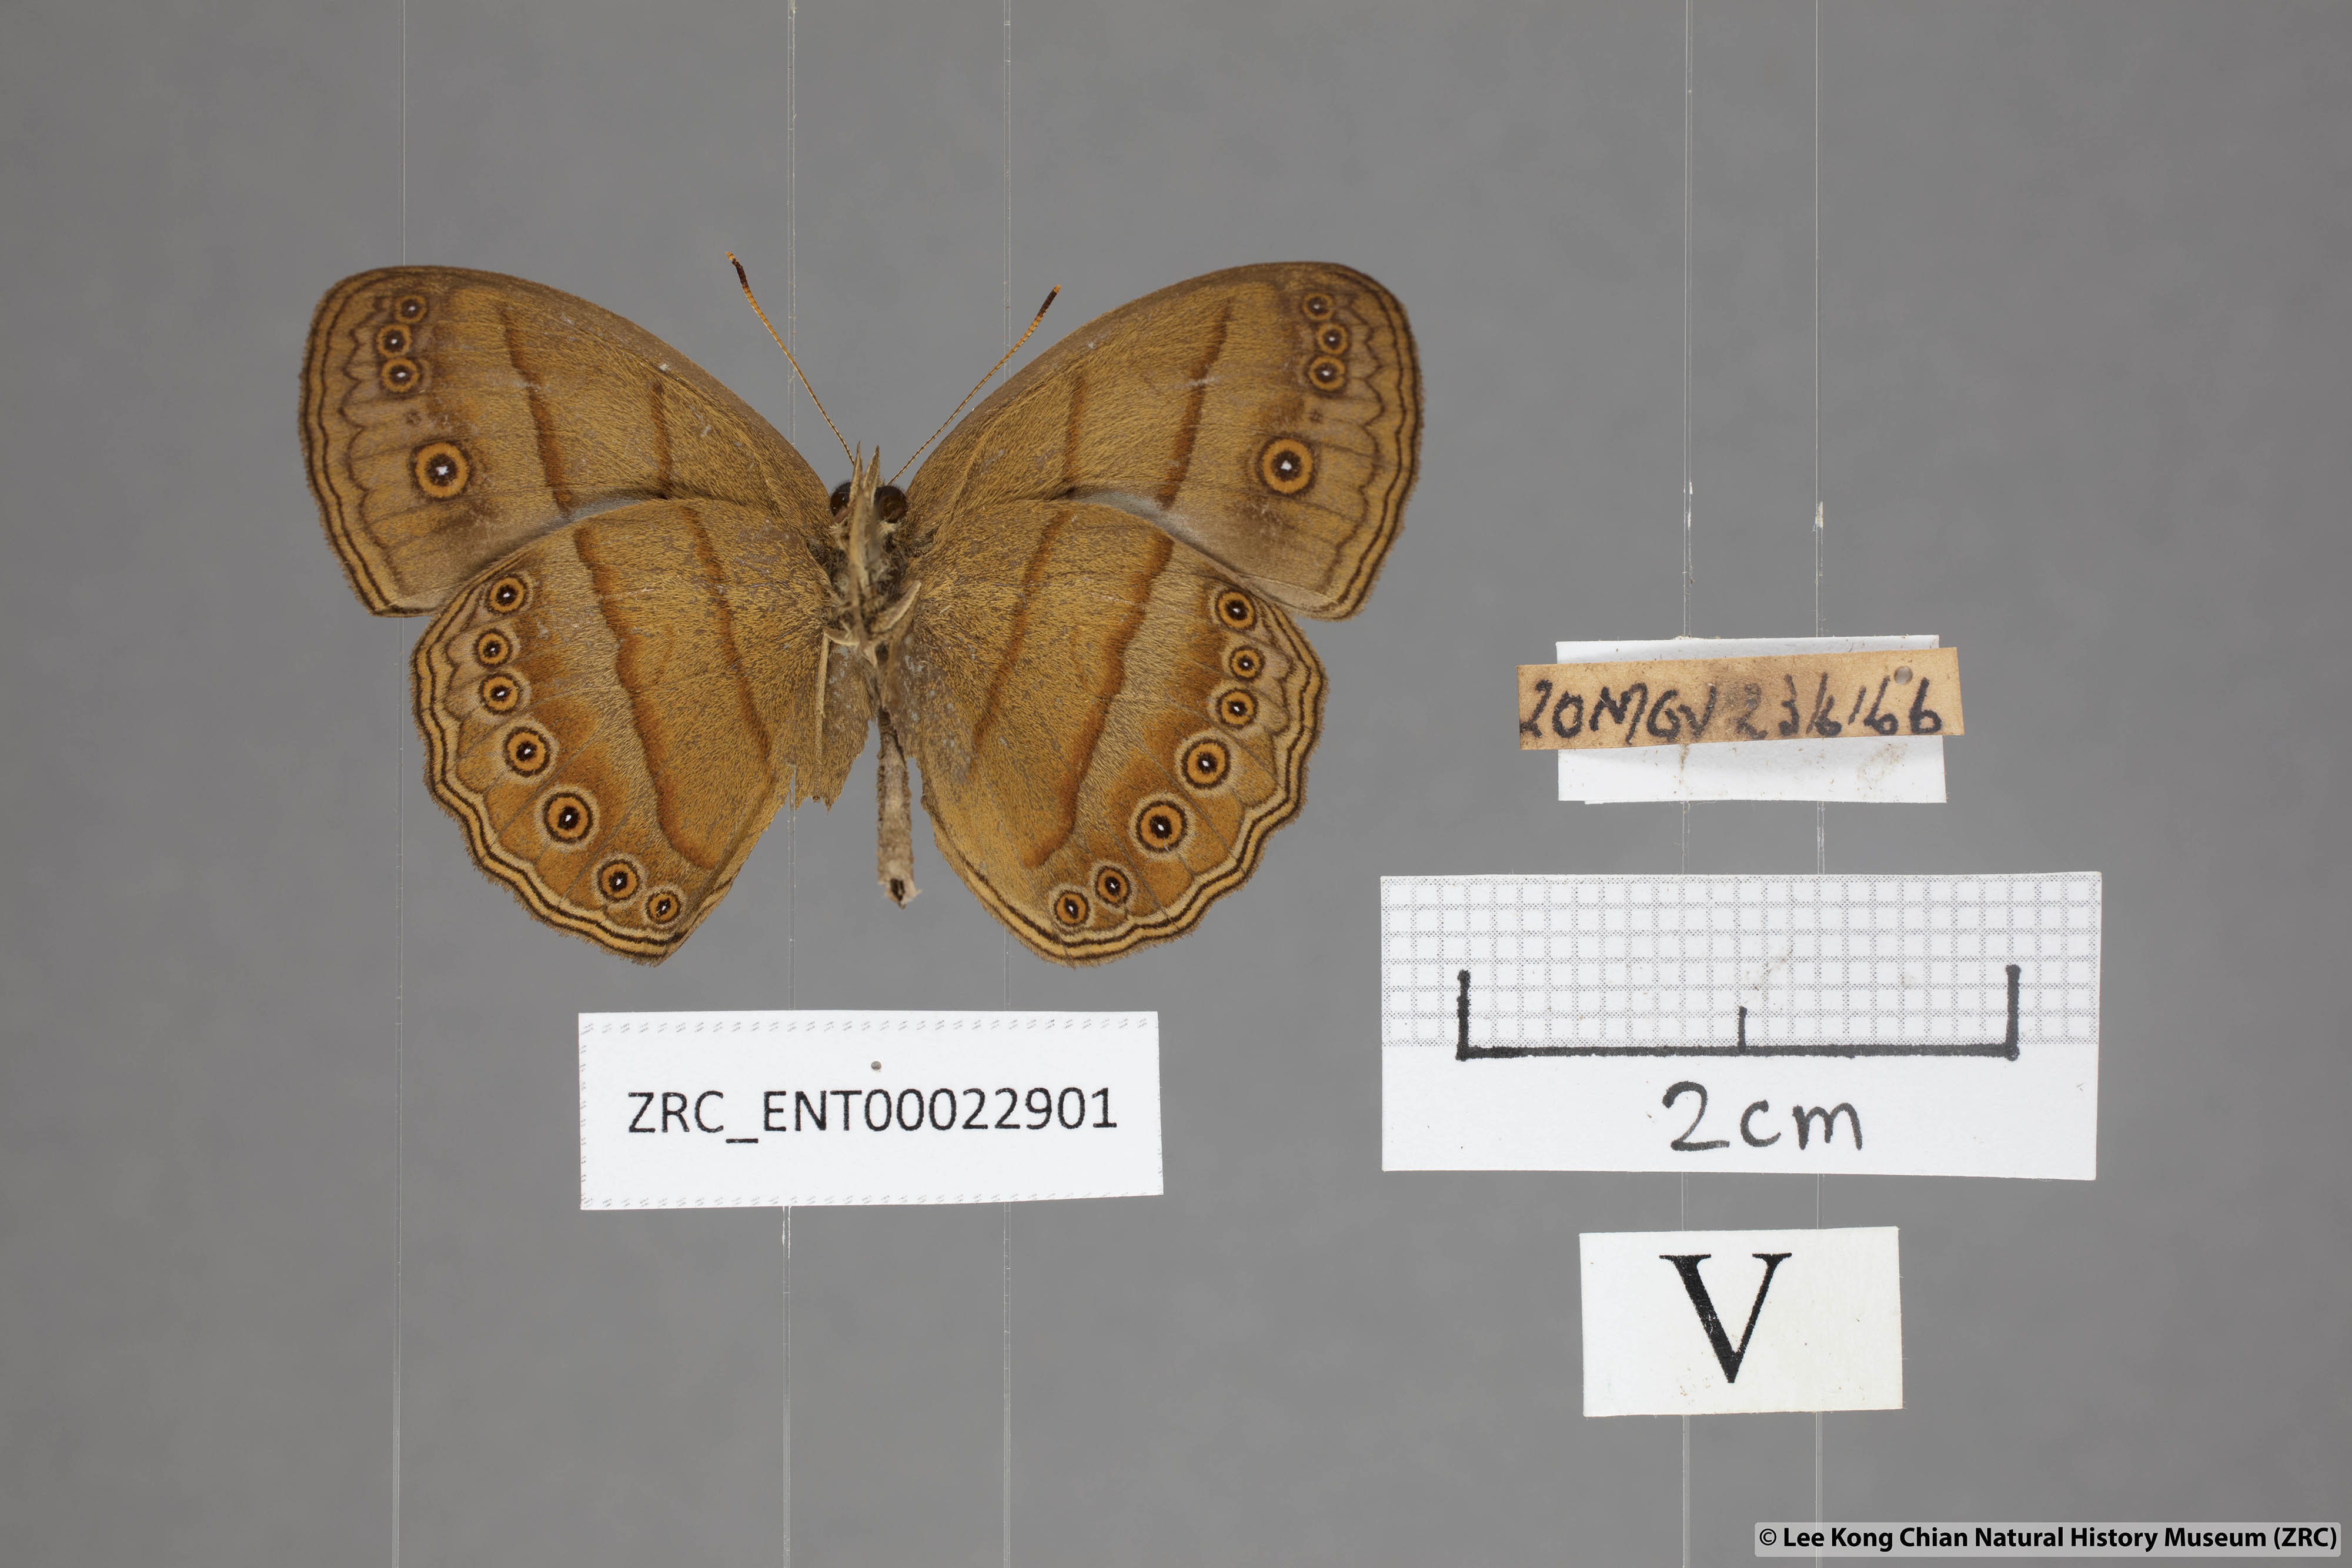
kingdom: Animalia
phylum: Arthropoda
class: Insecta
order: Lepidoptera
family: Nymphalidae
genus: Mycalesis
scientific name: Mycalesis fuscum
